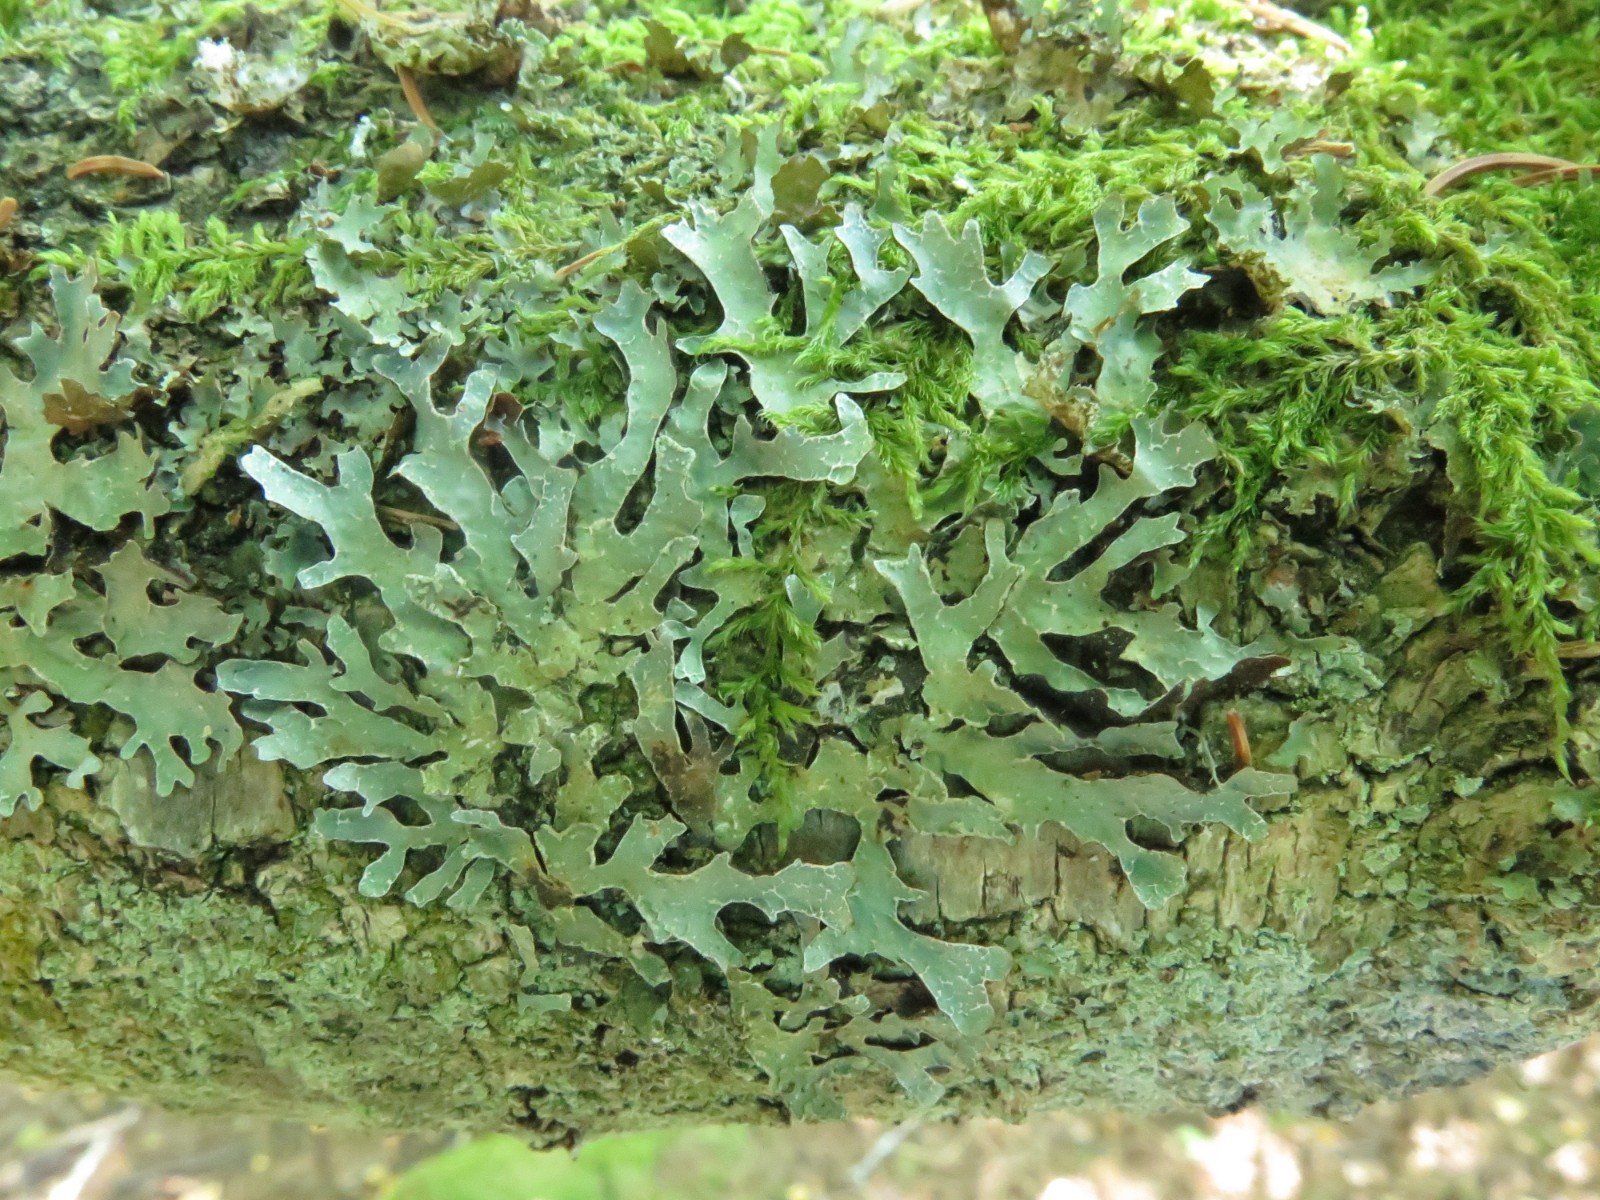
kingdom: Fungi
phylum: Ascomycota
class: Lecanoromycetes
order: Lecanorales
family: Parmeliaceae
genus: Parmelia
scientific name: Parmelia sulcata
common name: rynket skållav
